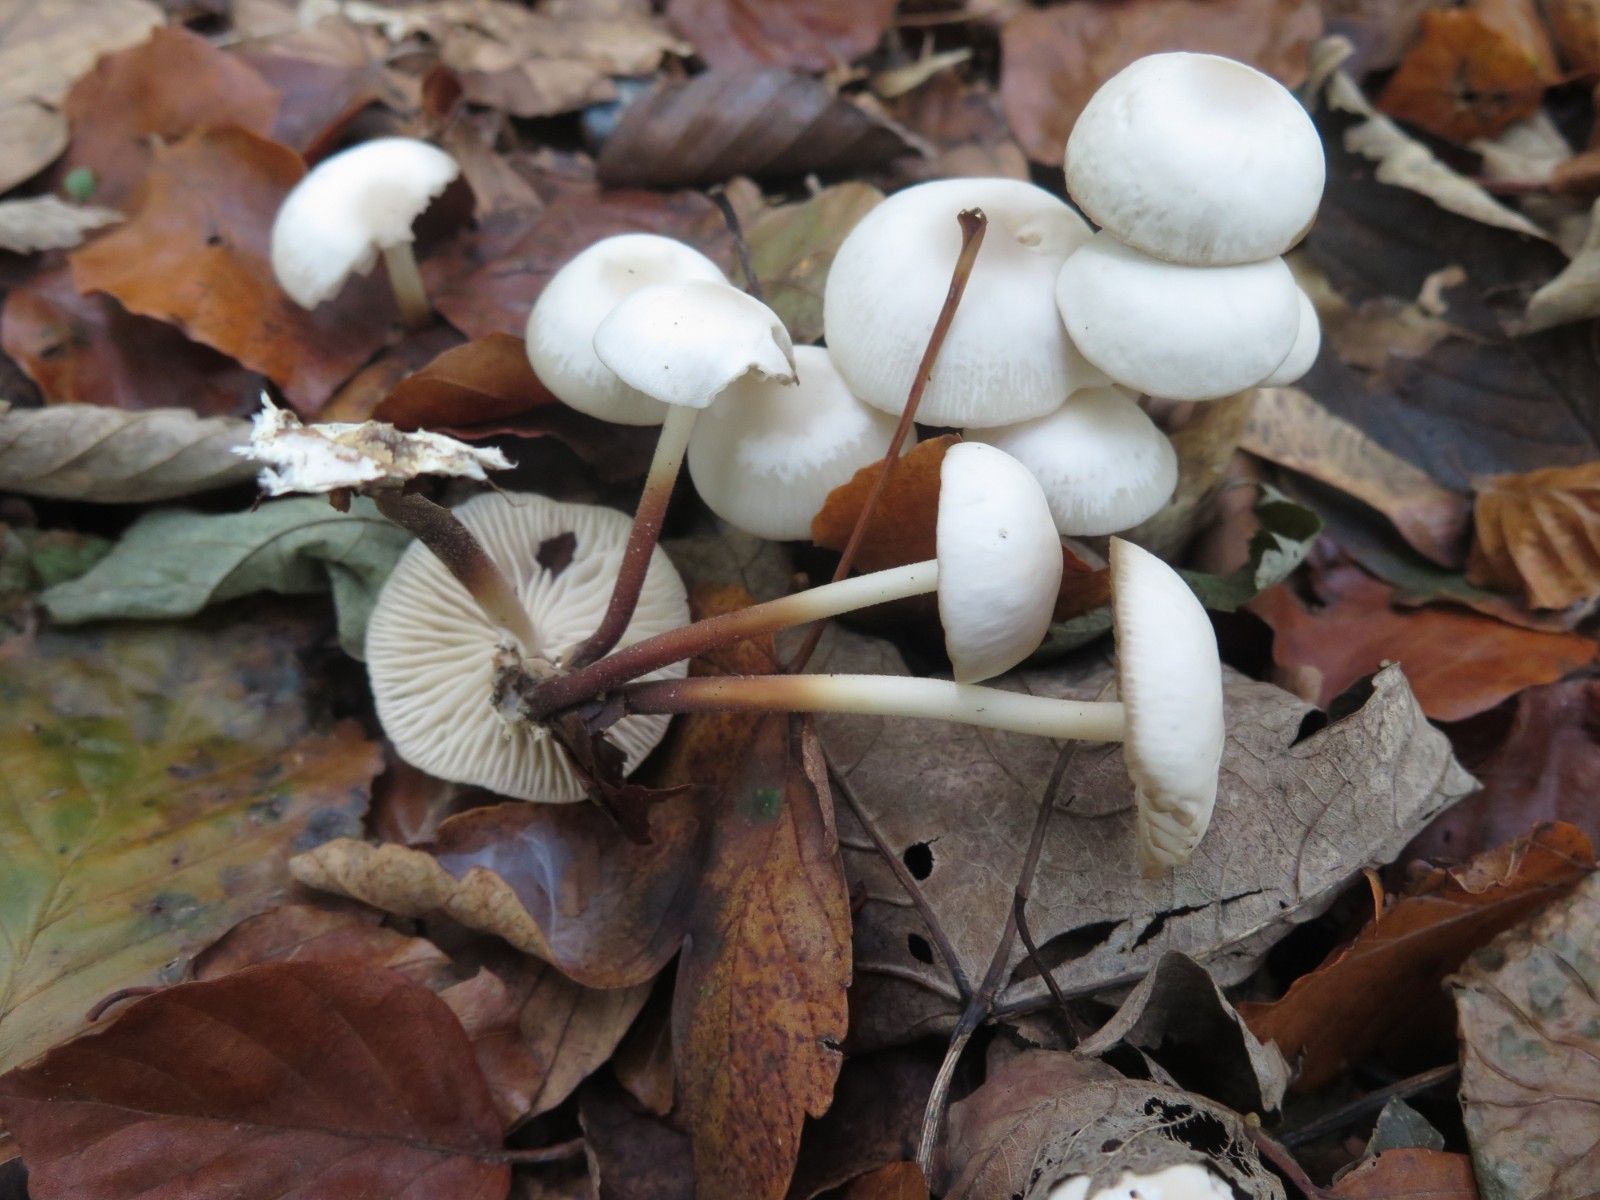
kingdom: Fungi
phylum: Basidiomycota
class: Agaricomycetes
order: Agaricales
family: Marasmiaceae
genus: Marasmius
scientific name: Marasmius wynneae
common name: hvælvet bruskhat
